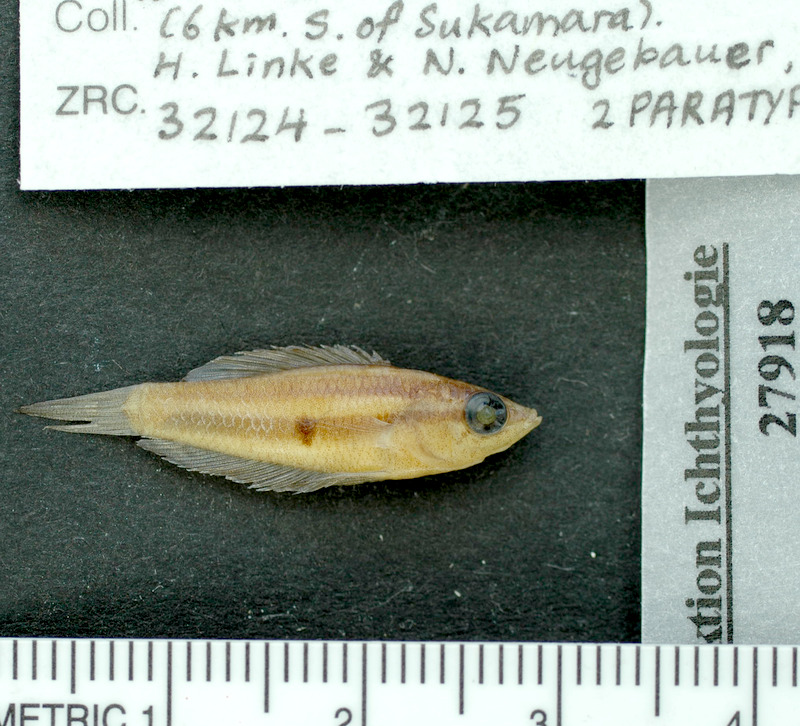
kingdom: Animalia
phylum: Chordata
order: Perciformes
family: Osphronemidae
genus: Parosphromenus
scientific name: Parosphromenus linkei
